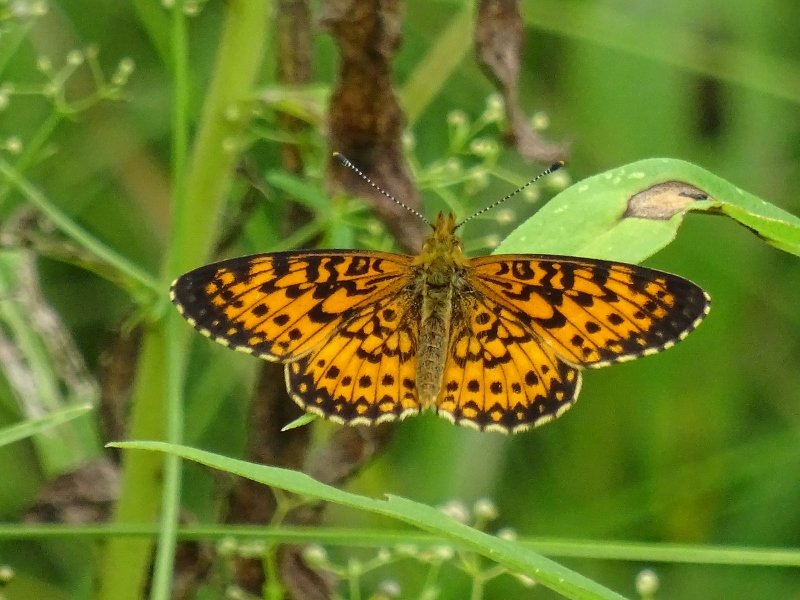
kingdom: Animalia
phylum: Arthropoda
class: Insecta
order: Lepidoptera
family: Nymphalidae
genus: Boloria
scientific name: Boloria selene
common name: Silver-bordered Fritillary
